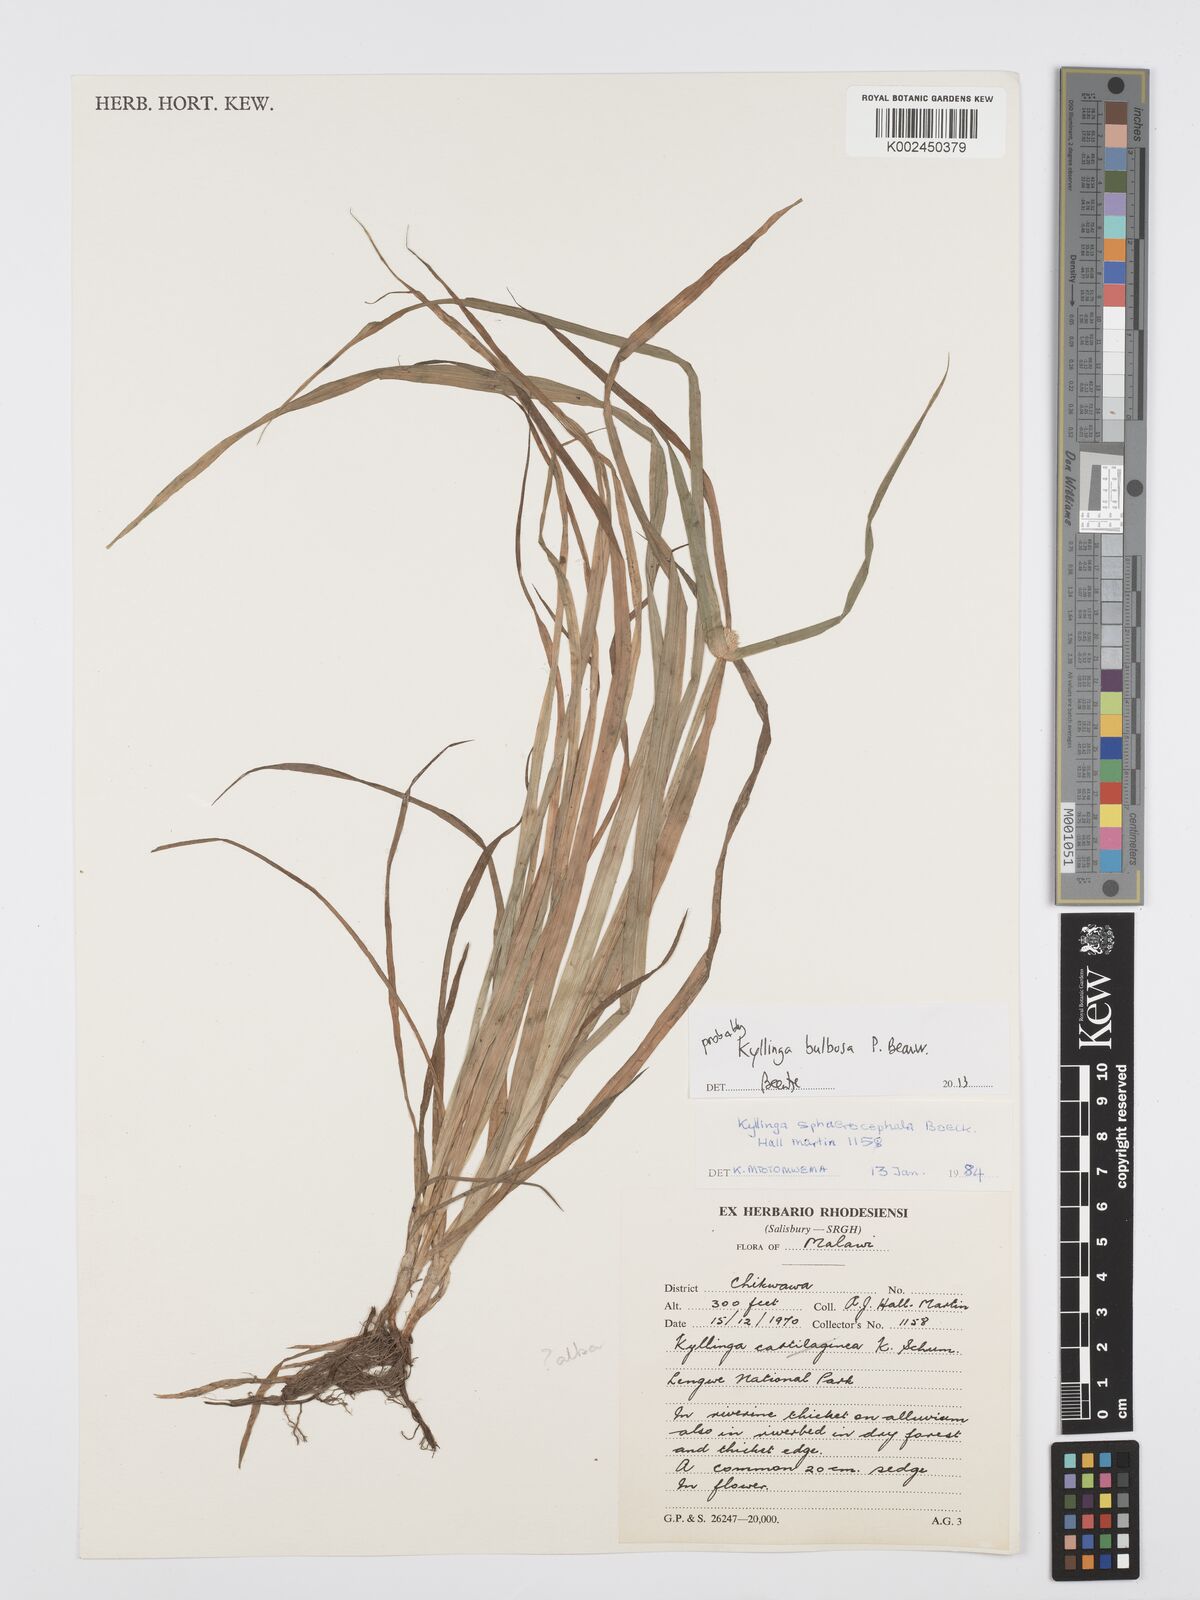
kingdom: Plantae
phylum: Tracheophyta
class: Liliopsida
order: Poales
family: Cyperaceae
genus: Cyperus
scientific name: Cyperus
